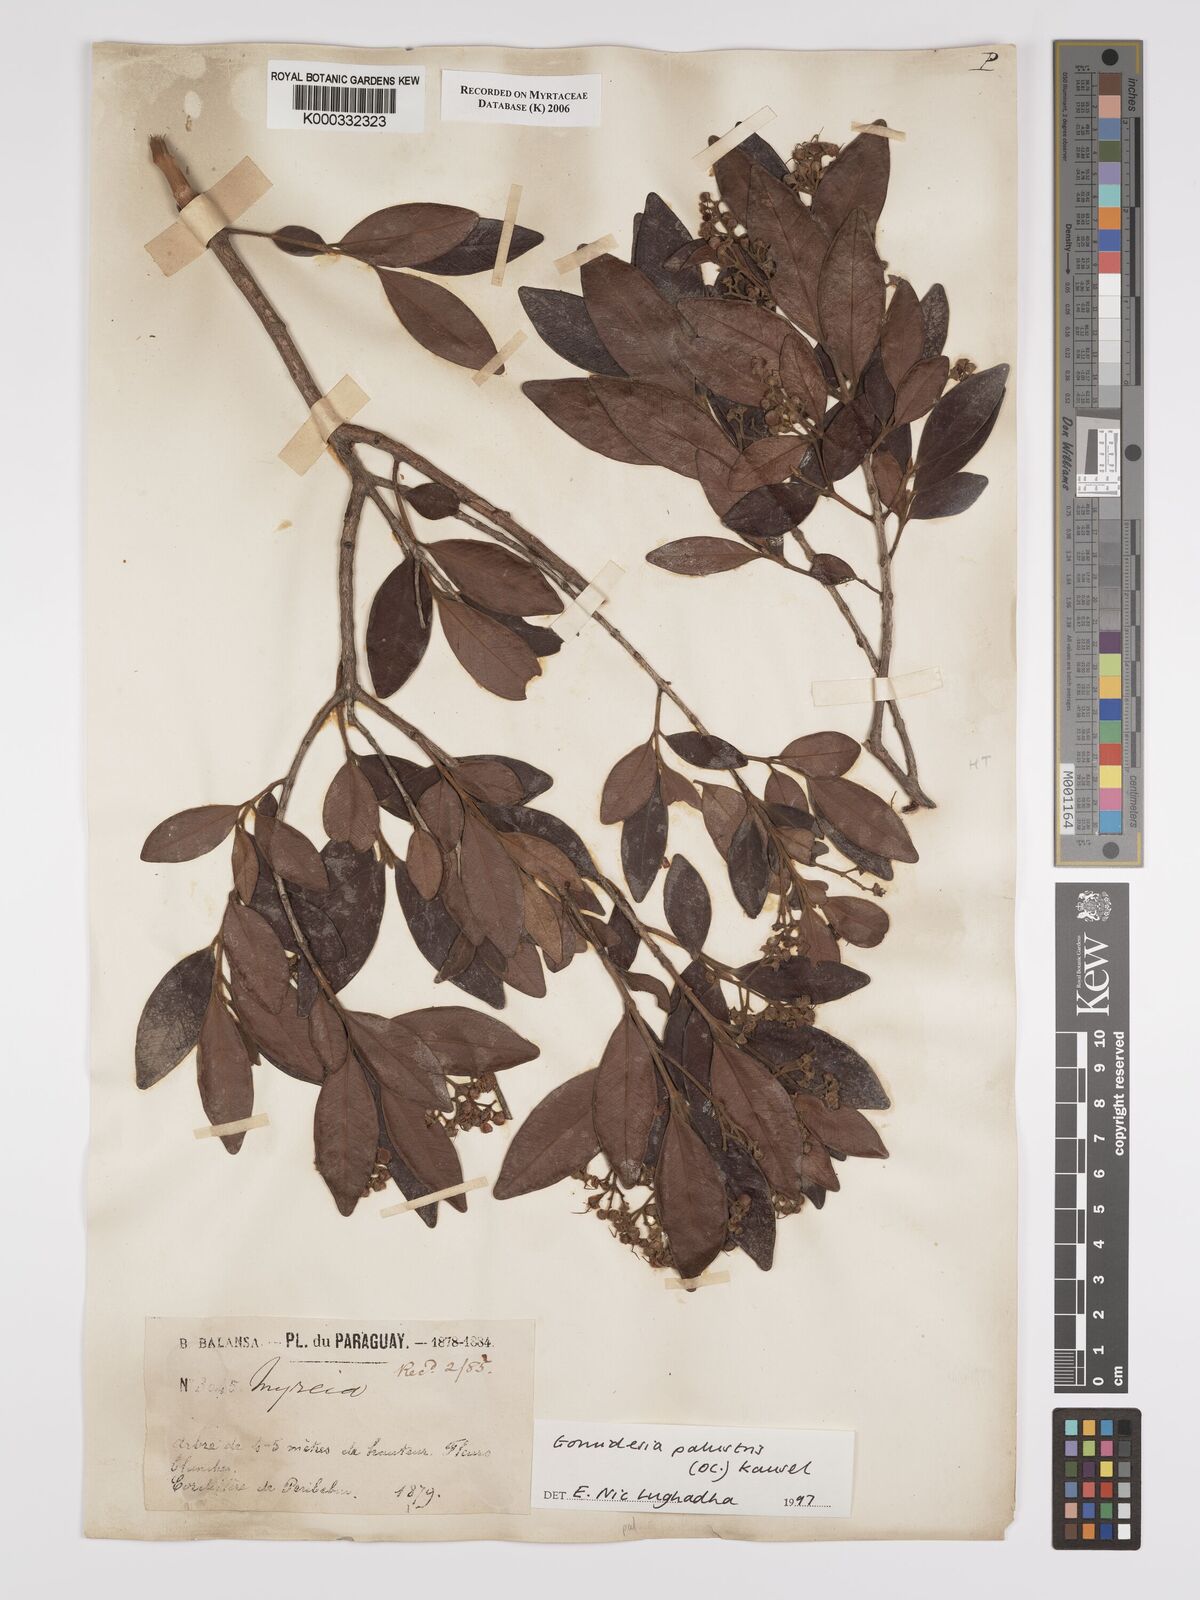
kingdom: Plantae
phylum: Tracheophyta
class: Magnoliopsida
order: Myrtales
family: Myrtaceae
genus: Myrcia
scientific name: Myrcia palustris
